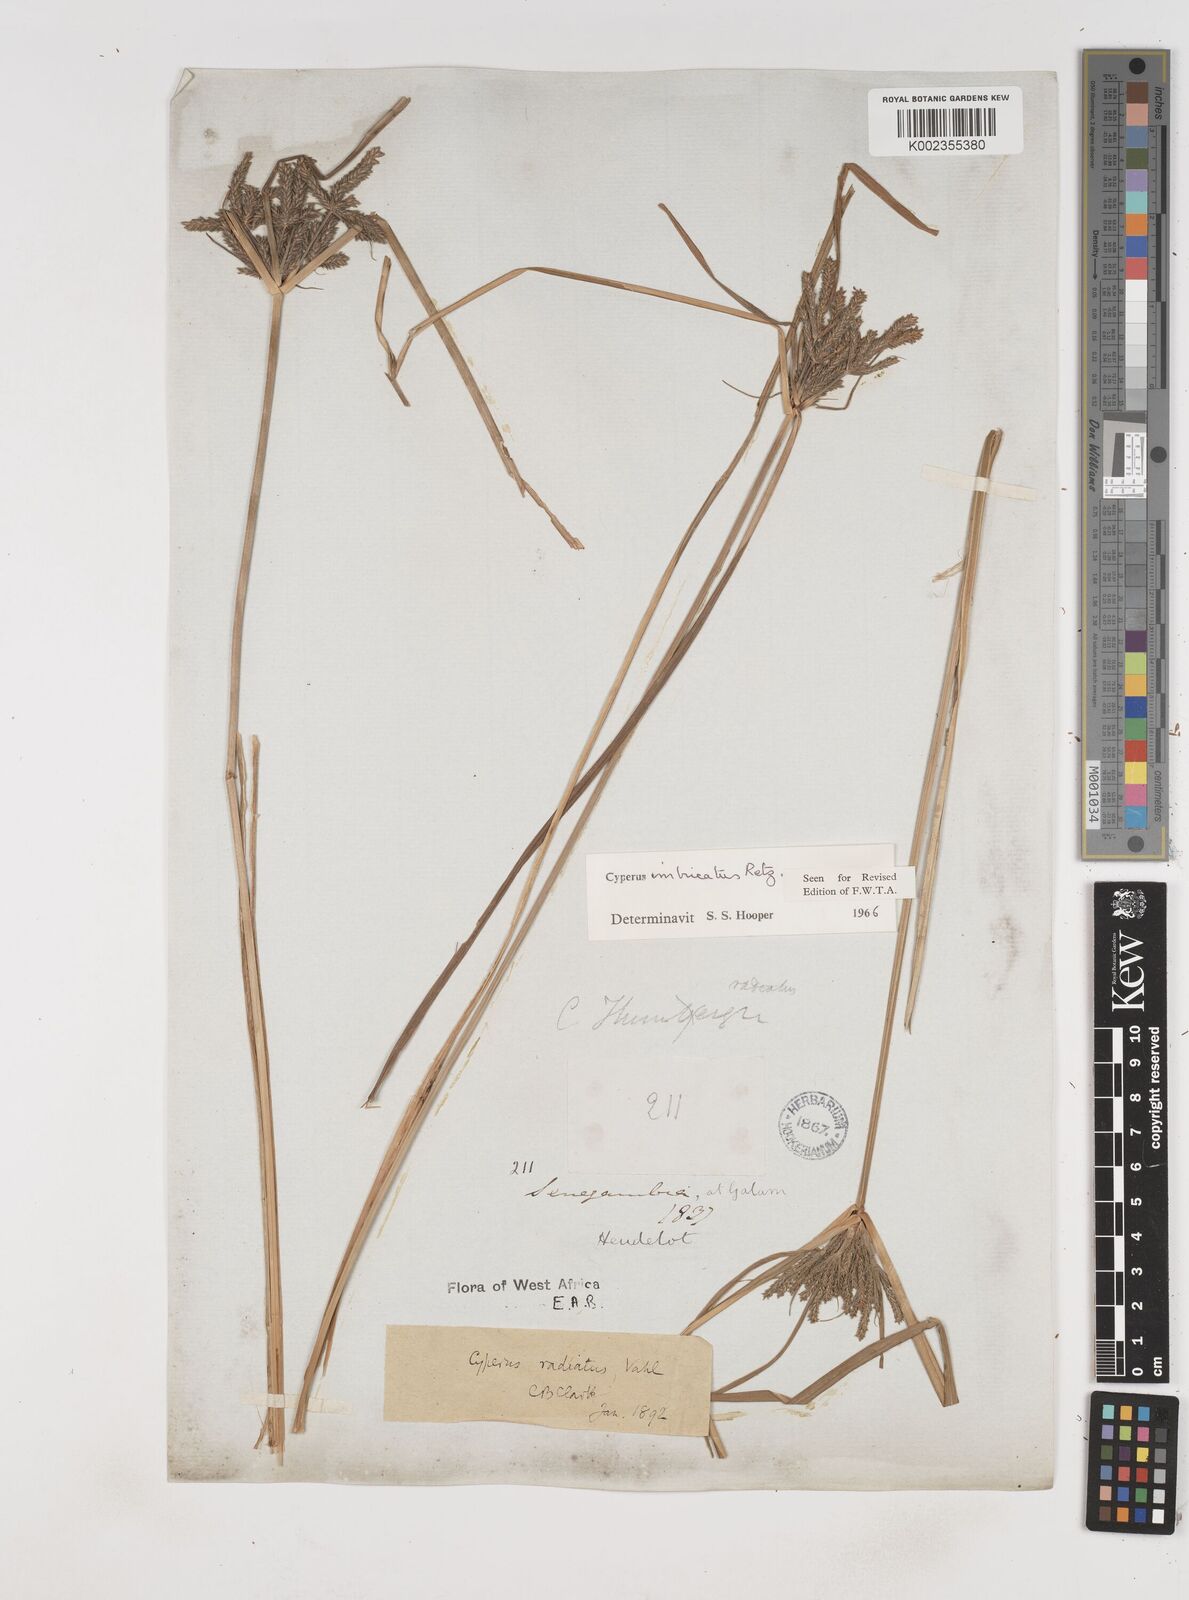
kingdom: Plantae
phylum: Tracheophyta
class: Liliopsida
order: Poales
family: Cyperaceae
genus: Cyperus
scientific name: Cyperus imbricatus
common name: Shingle flatsedge
